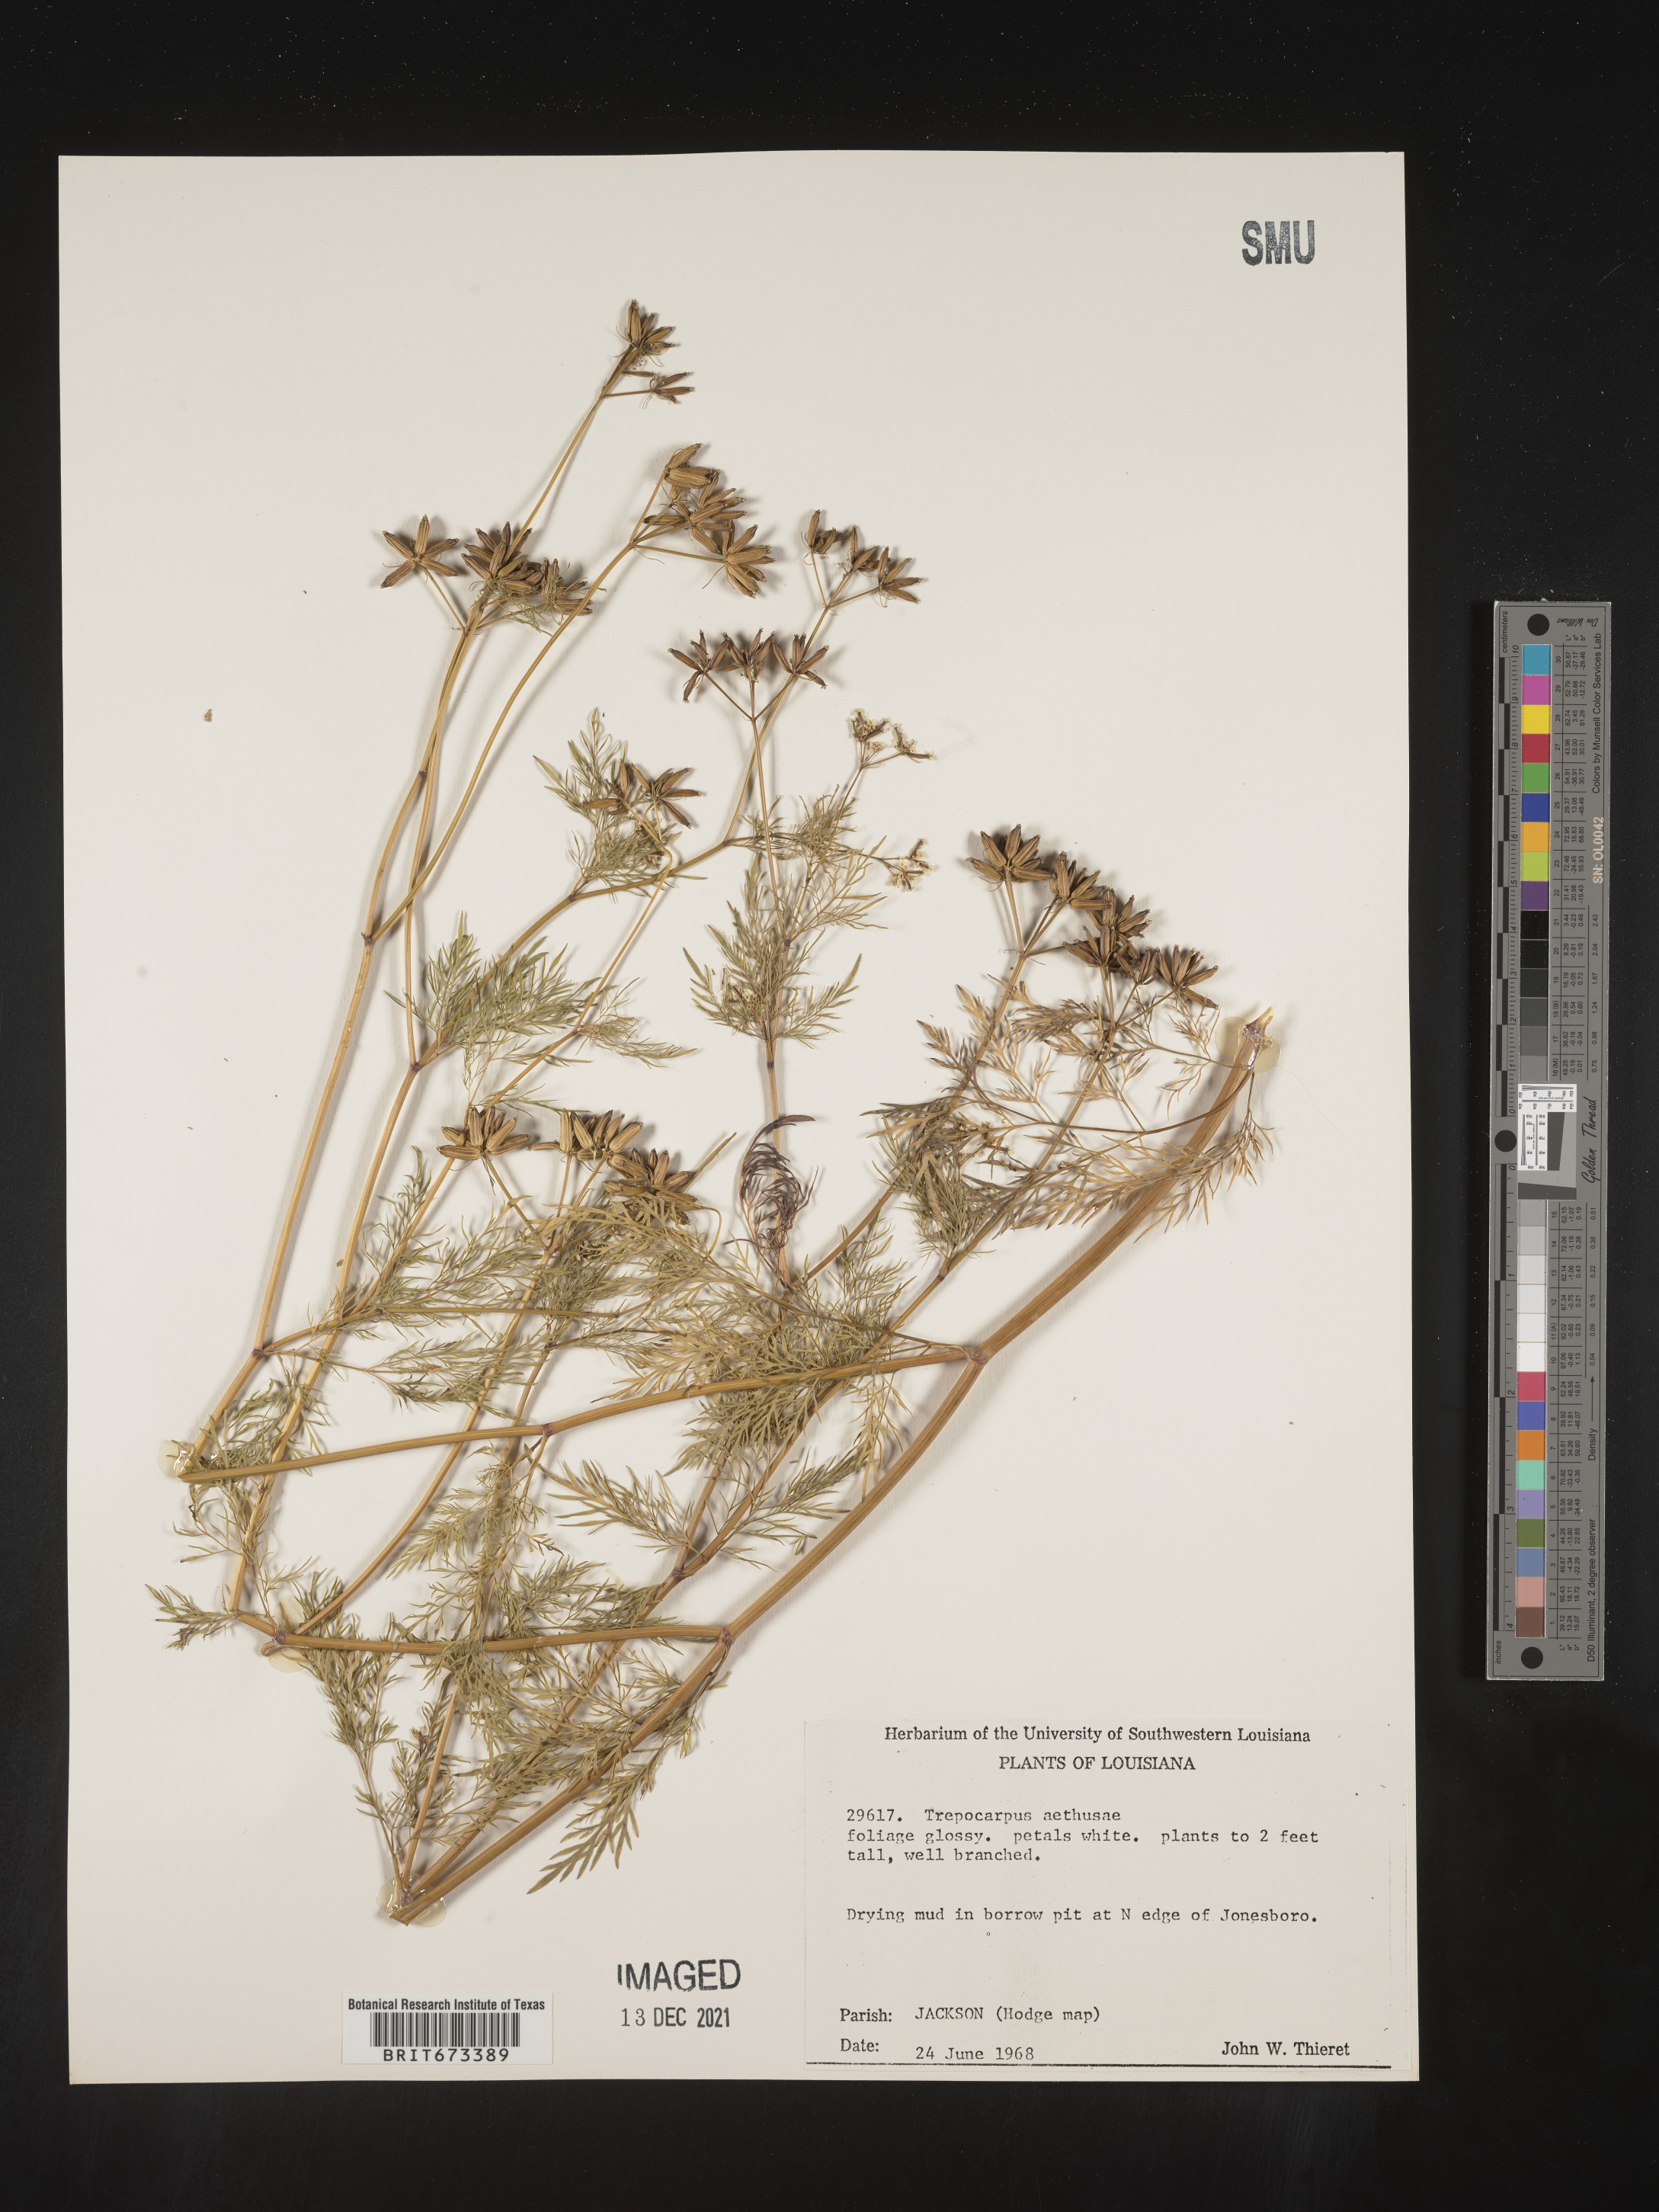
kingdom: Plantae
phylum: Tracheophyta
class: Magnoliopsida
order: Apiales
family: Apiaceae
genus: Trepocarpus
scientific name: Trepocarpus aethusae
